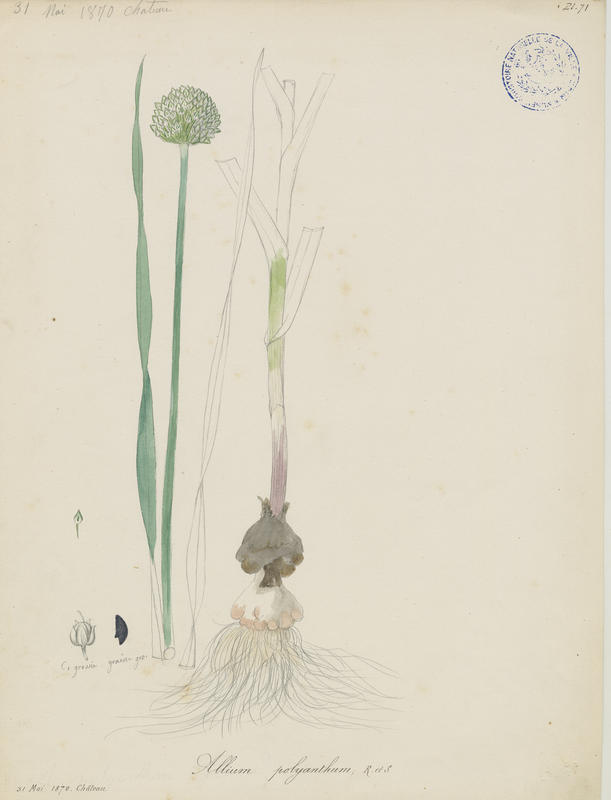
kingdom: Plantae
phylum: Tracheophyta
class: Liliopsida
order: Asparagales
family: Amaryllidaceae
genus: Allium
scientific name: Allium ampeloprasum
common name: Wild leek
